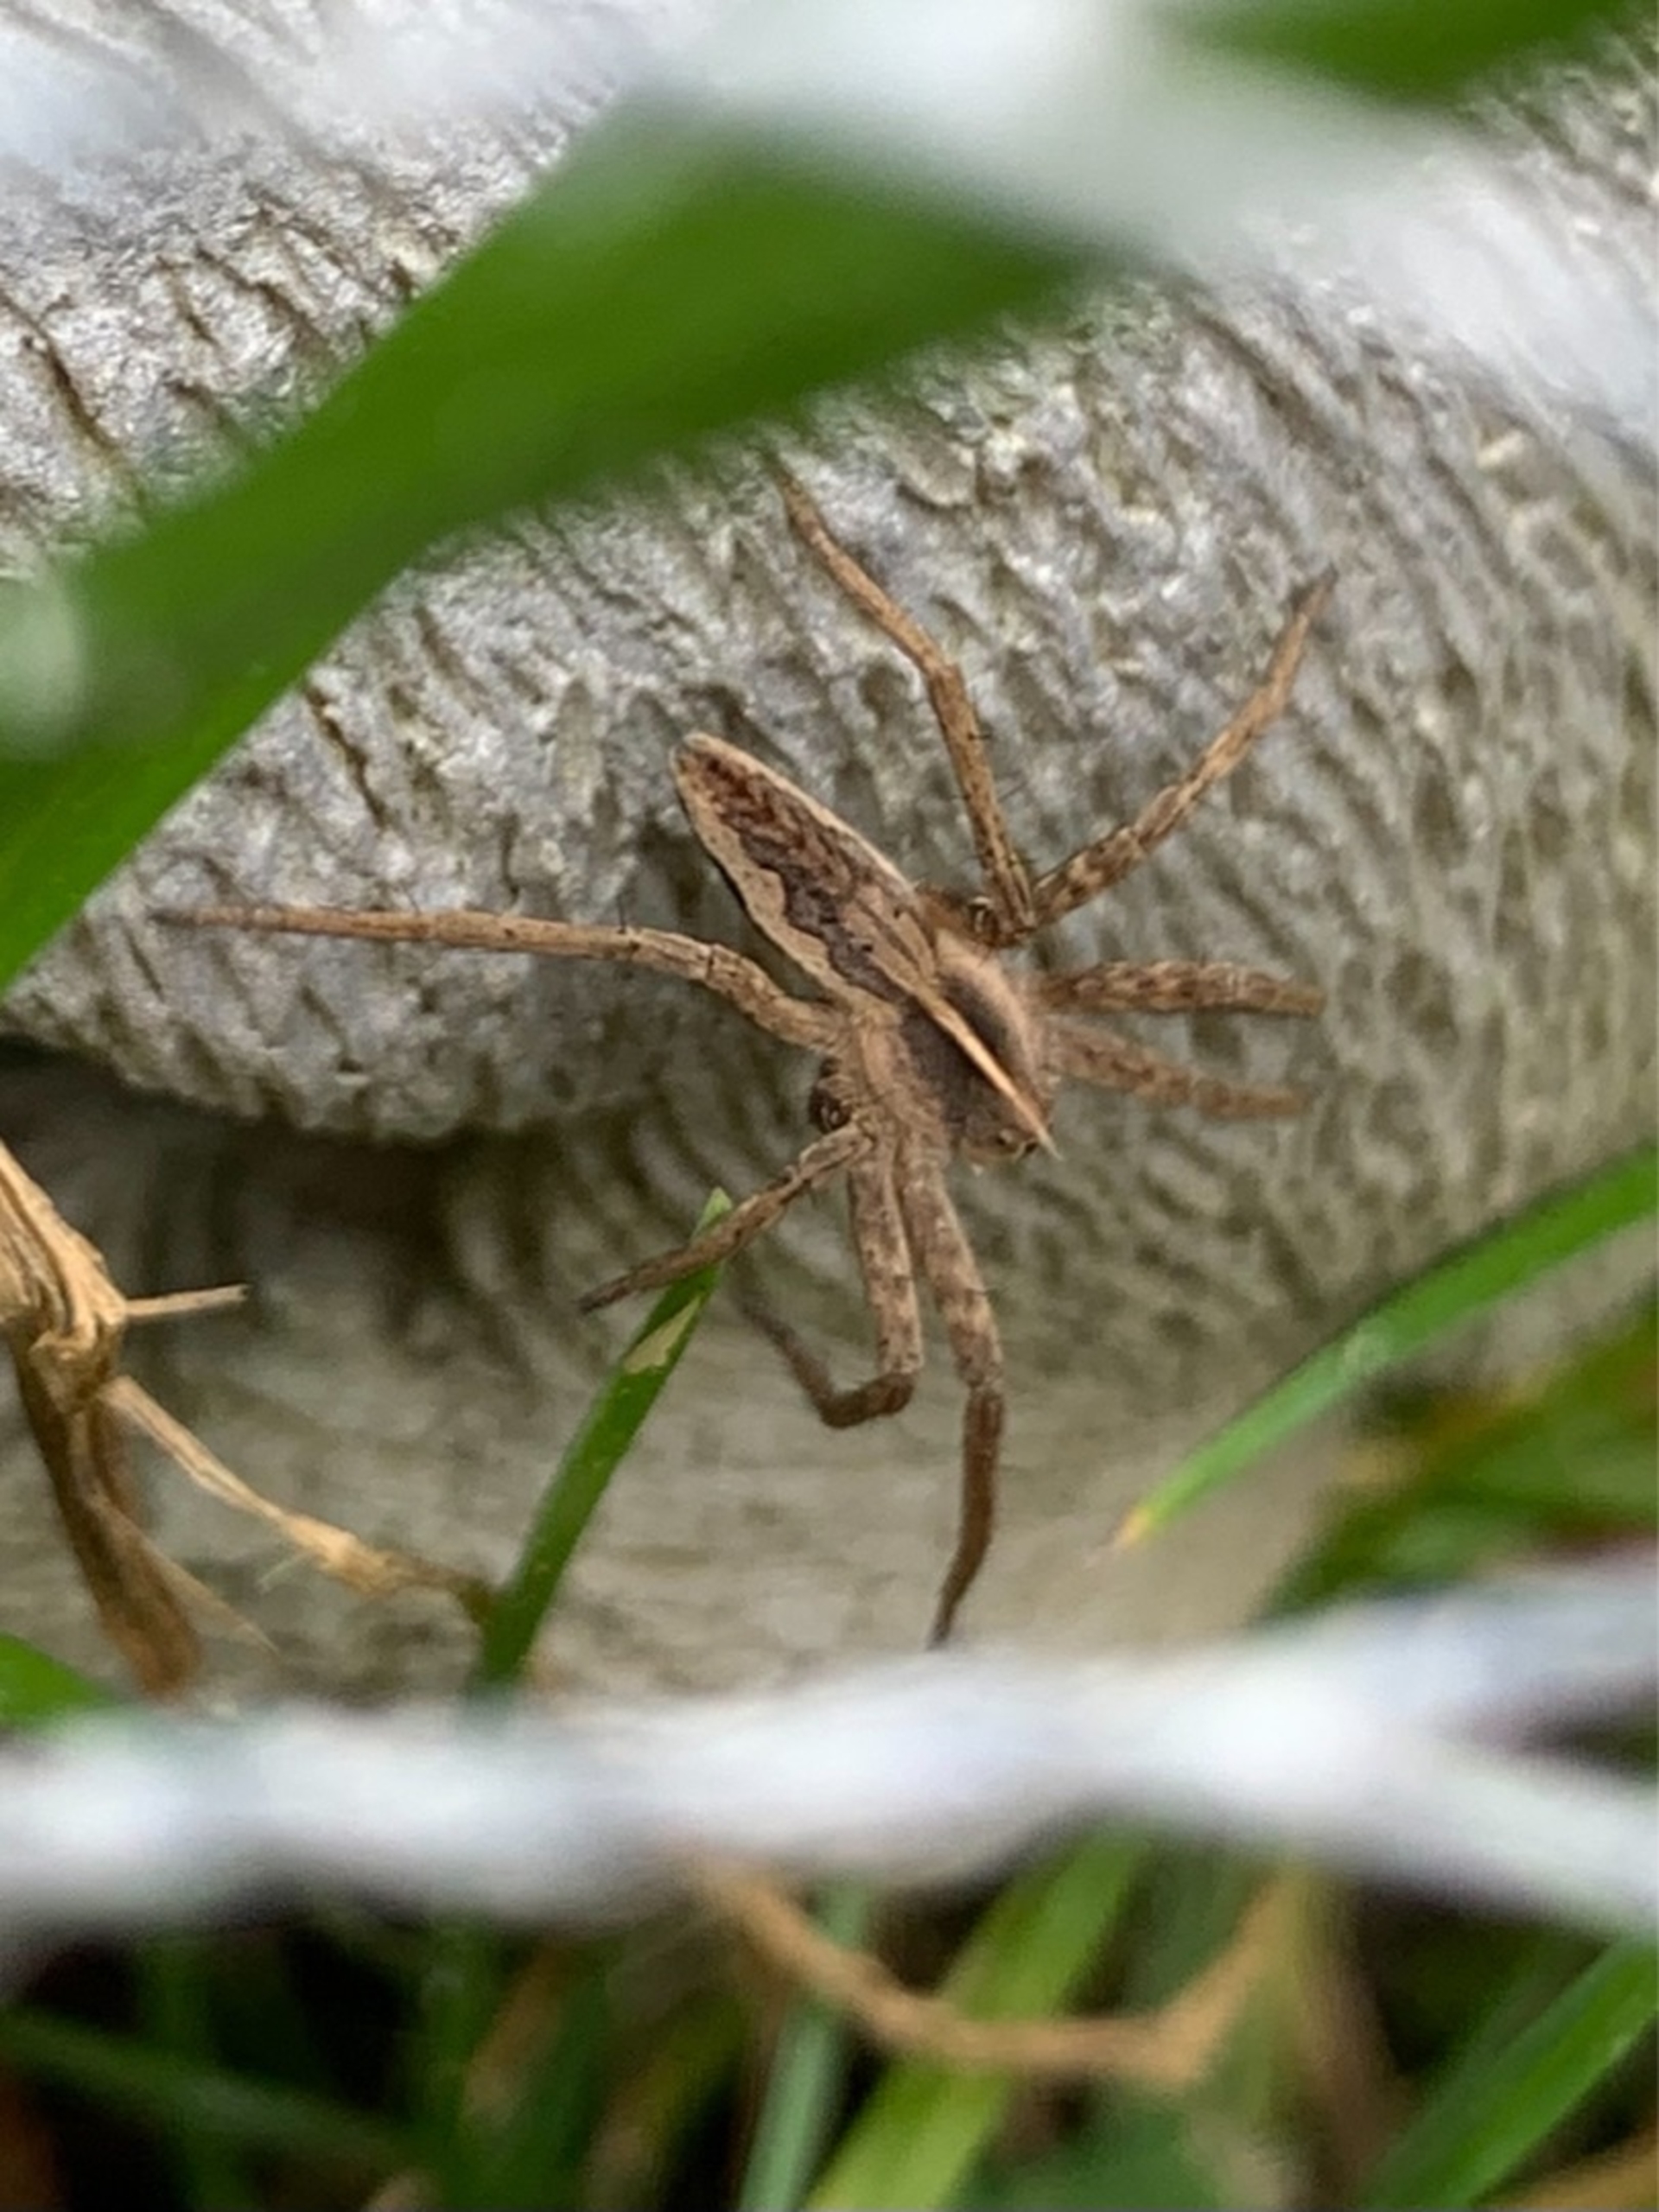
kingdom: Animalia
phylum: Arthropoda
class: Arachnida
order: Araneae
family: Pisauridae
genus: Pisaura
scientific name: Pisaura mirabilis
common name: Almindelig rovedderkop
